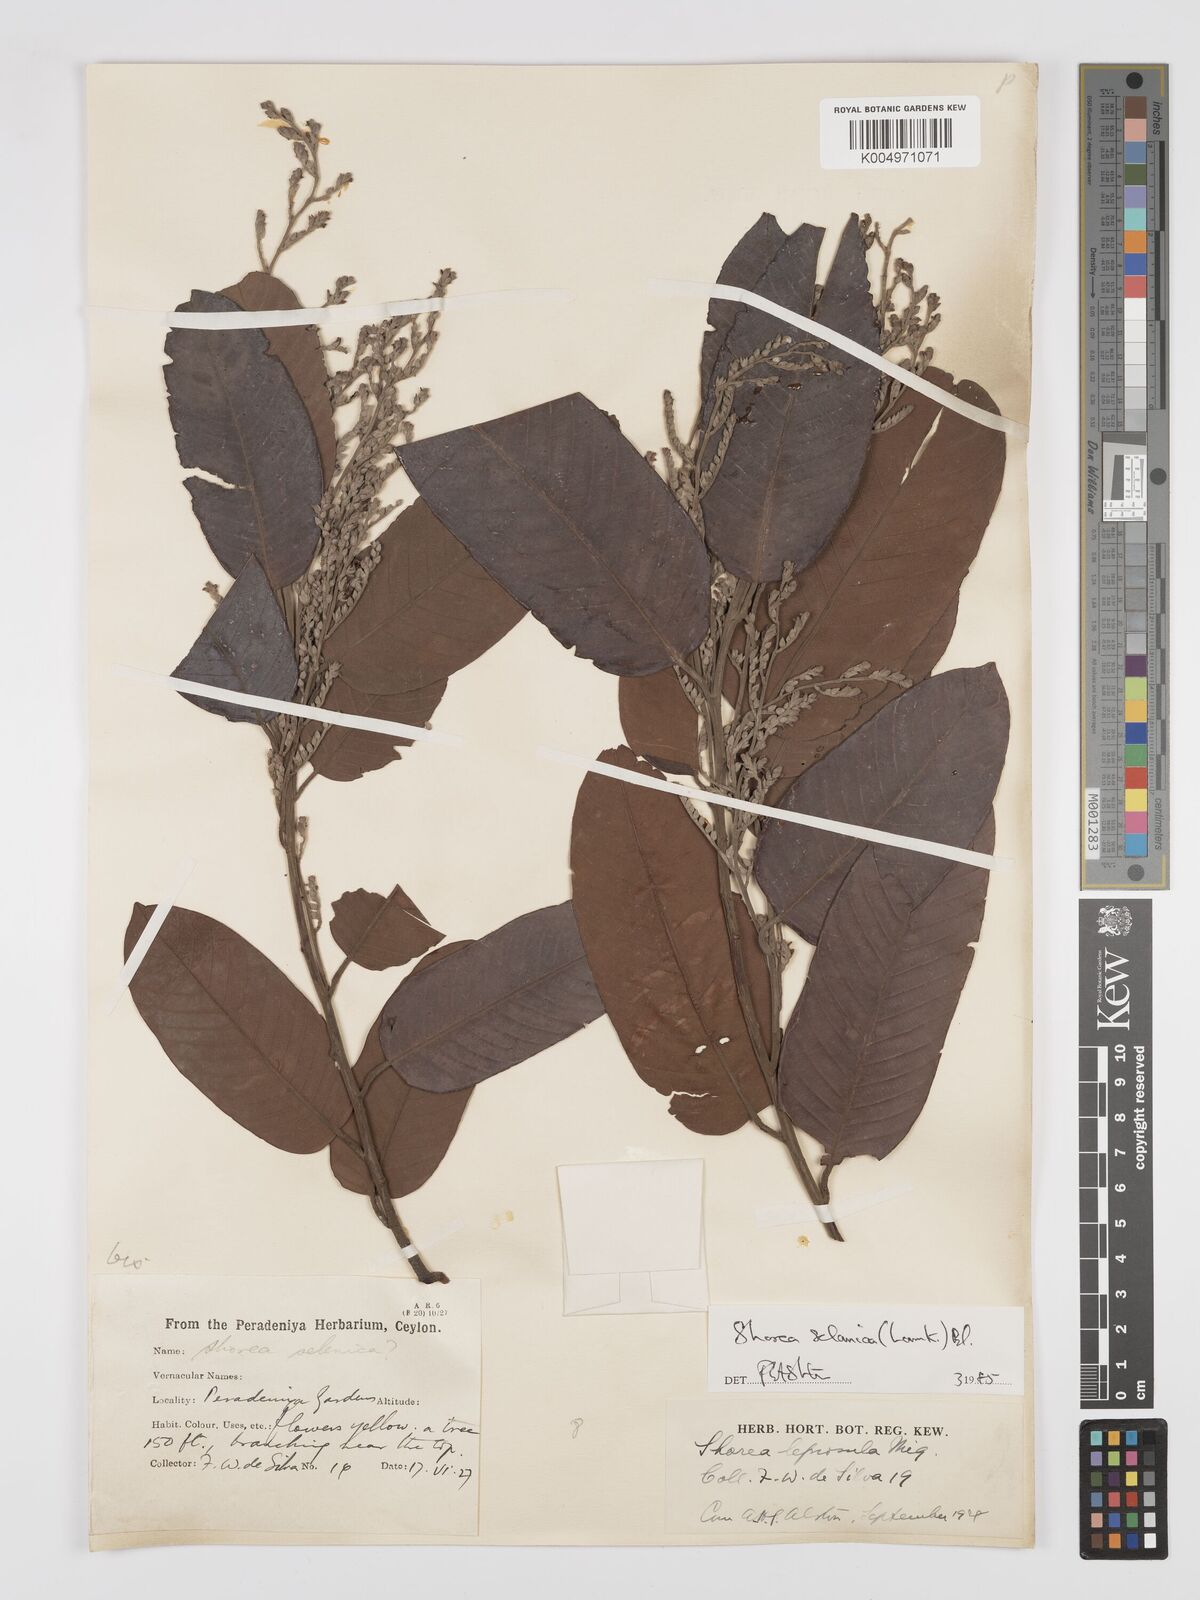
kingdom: Plantae
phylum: Tracheophyta
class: Magnoliopsida
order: Malvales
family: Dipterocarpaceae
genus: Shorea
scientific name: Shorea selanica
